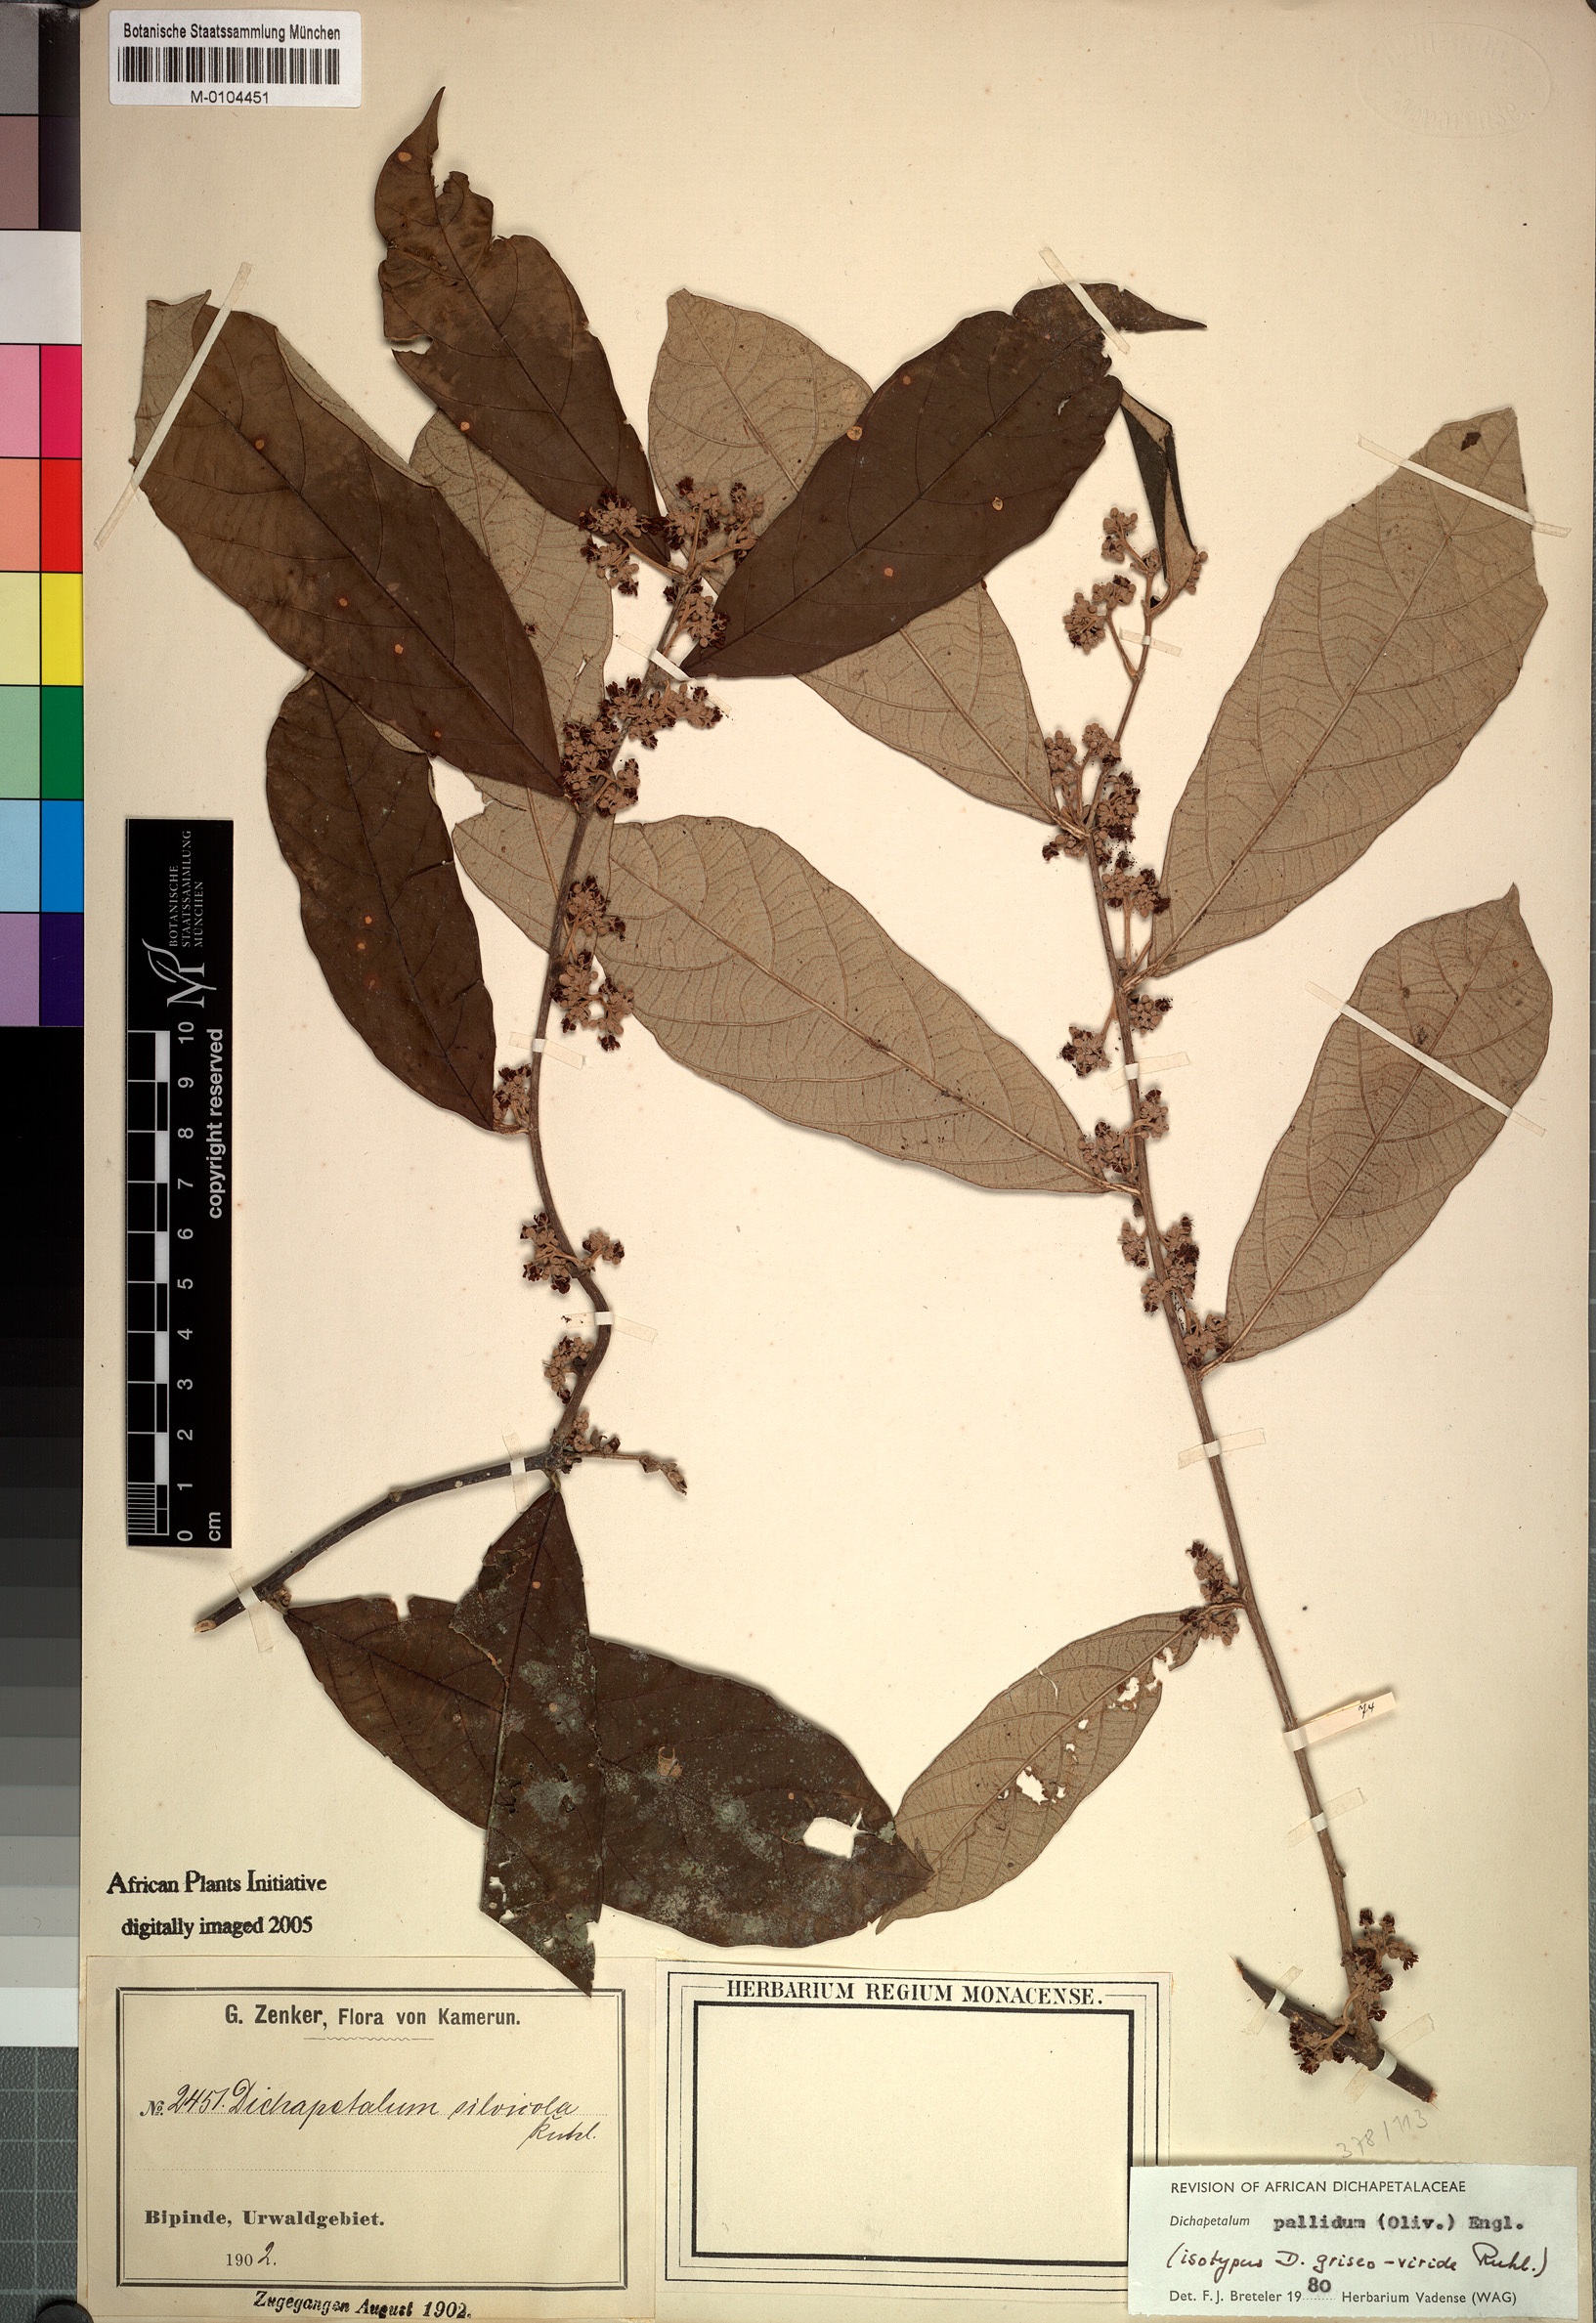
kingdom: Plantae
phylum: Tracheophyta
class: Magnoliopsida
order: Malpighiales
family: Dichapetalaceae
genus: Dichapetalum
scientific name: Dichapetalum pallidum
